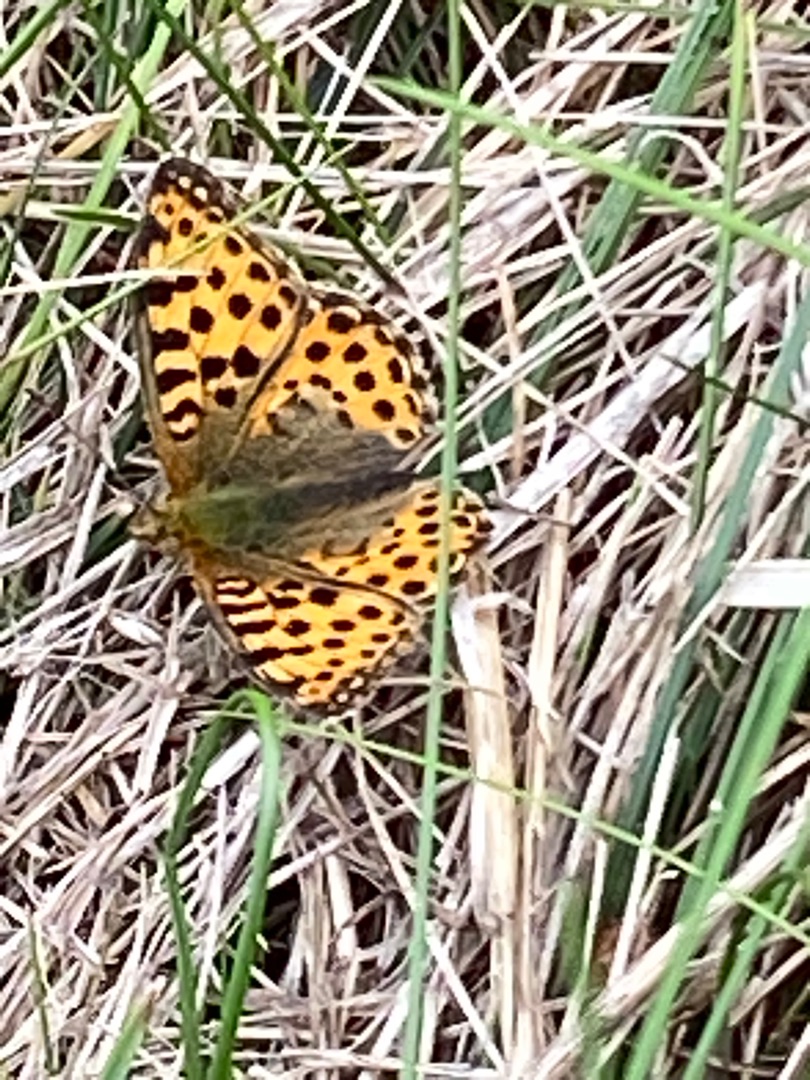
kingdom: Animalia
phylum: Arthropoda
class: Insecta
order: Lepidoptera
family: Nymphalidae
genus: Issoria
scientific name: Issoria lathonia
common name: Storplettet perlemorsommerfugl
